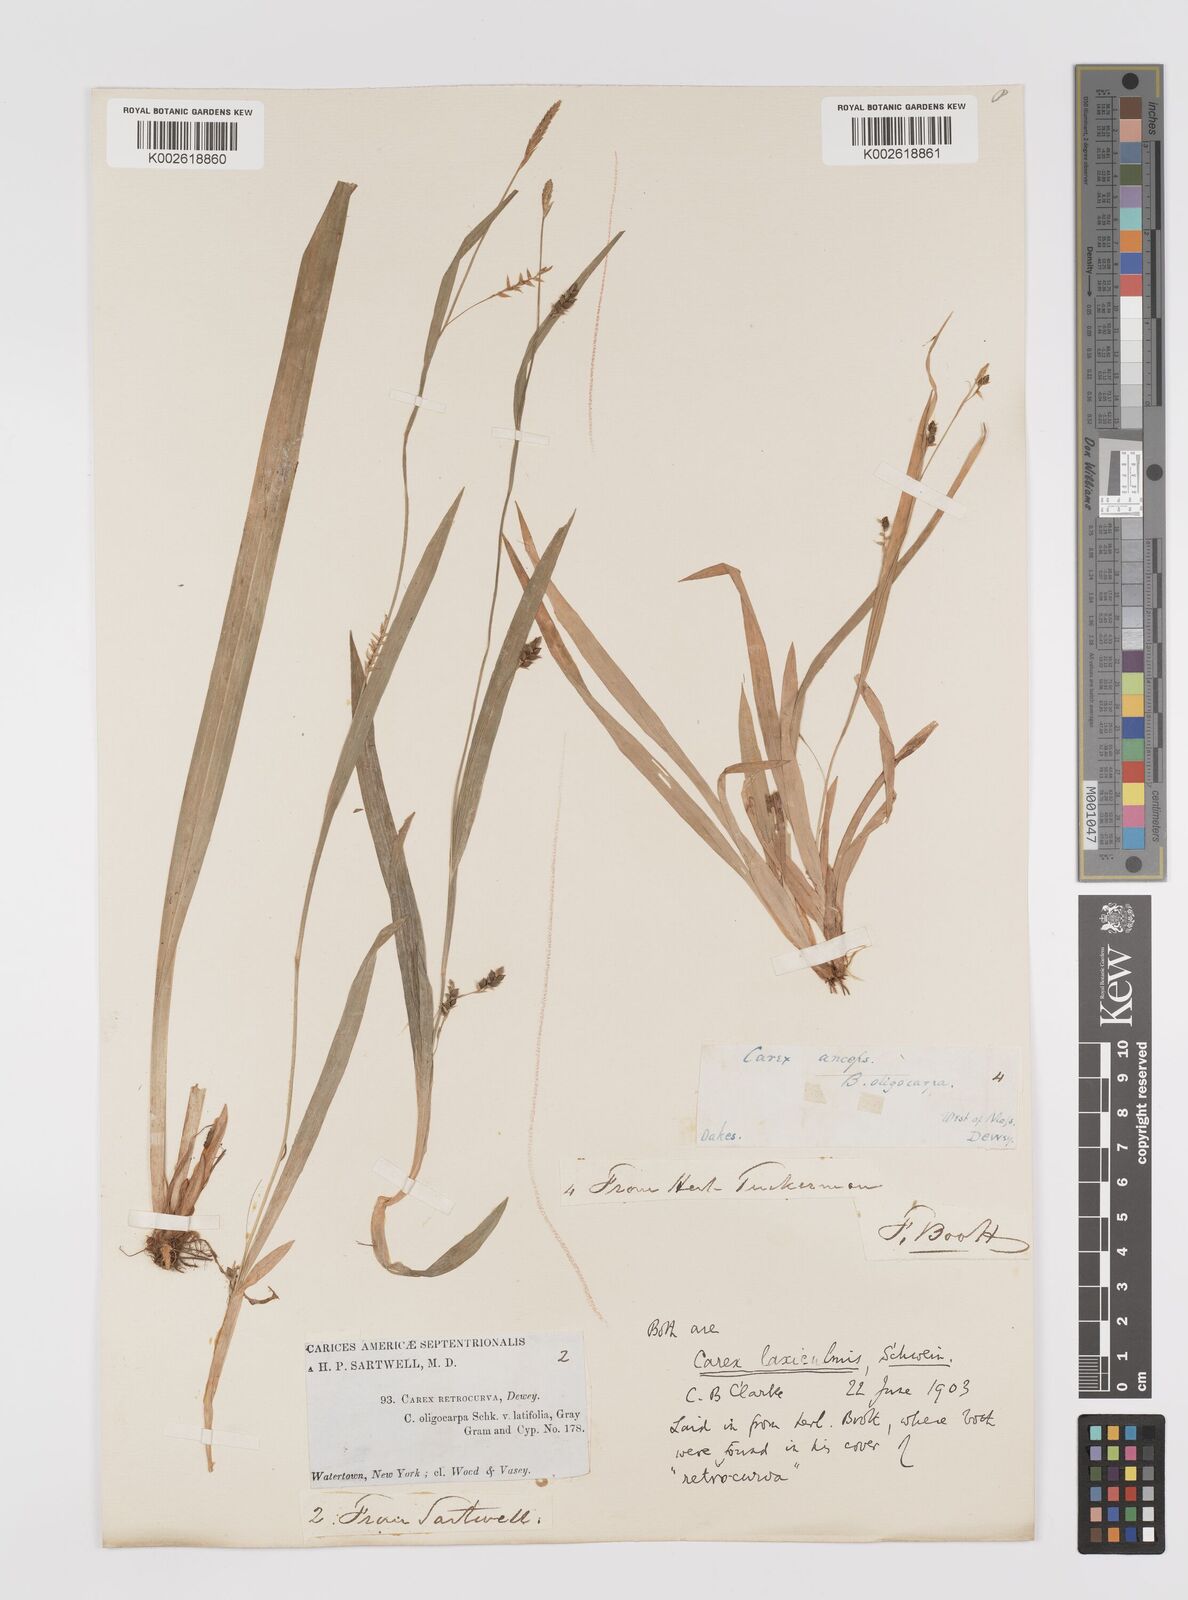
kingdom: Plantae
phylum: Tracheophyta
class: Liliopsida
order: Poales
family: Cyperaceae
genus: Carex
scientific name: Carex laxiculmis
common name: Spreading sedge
